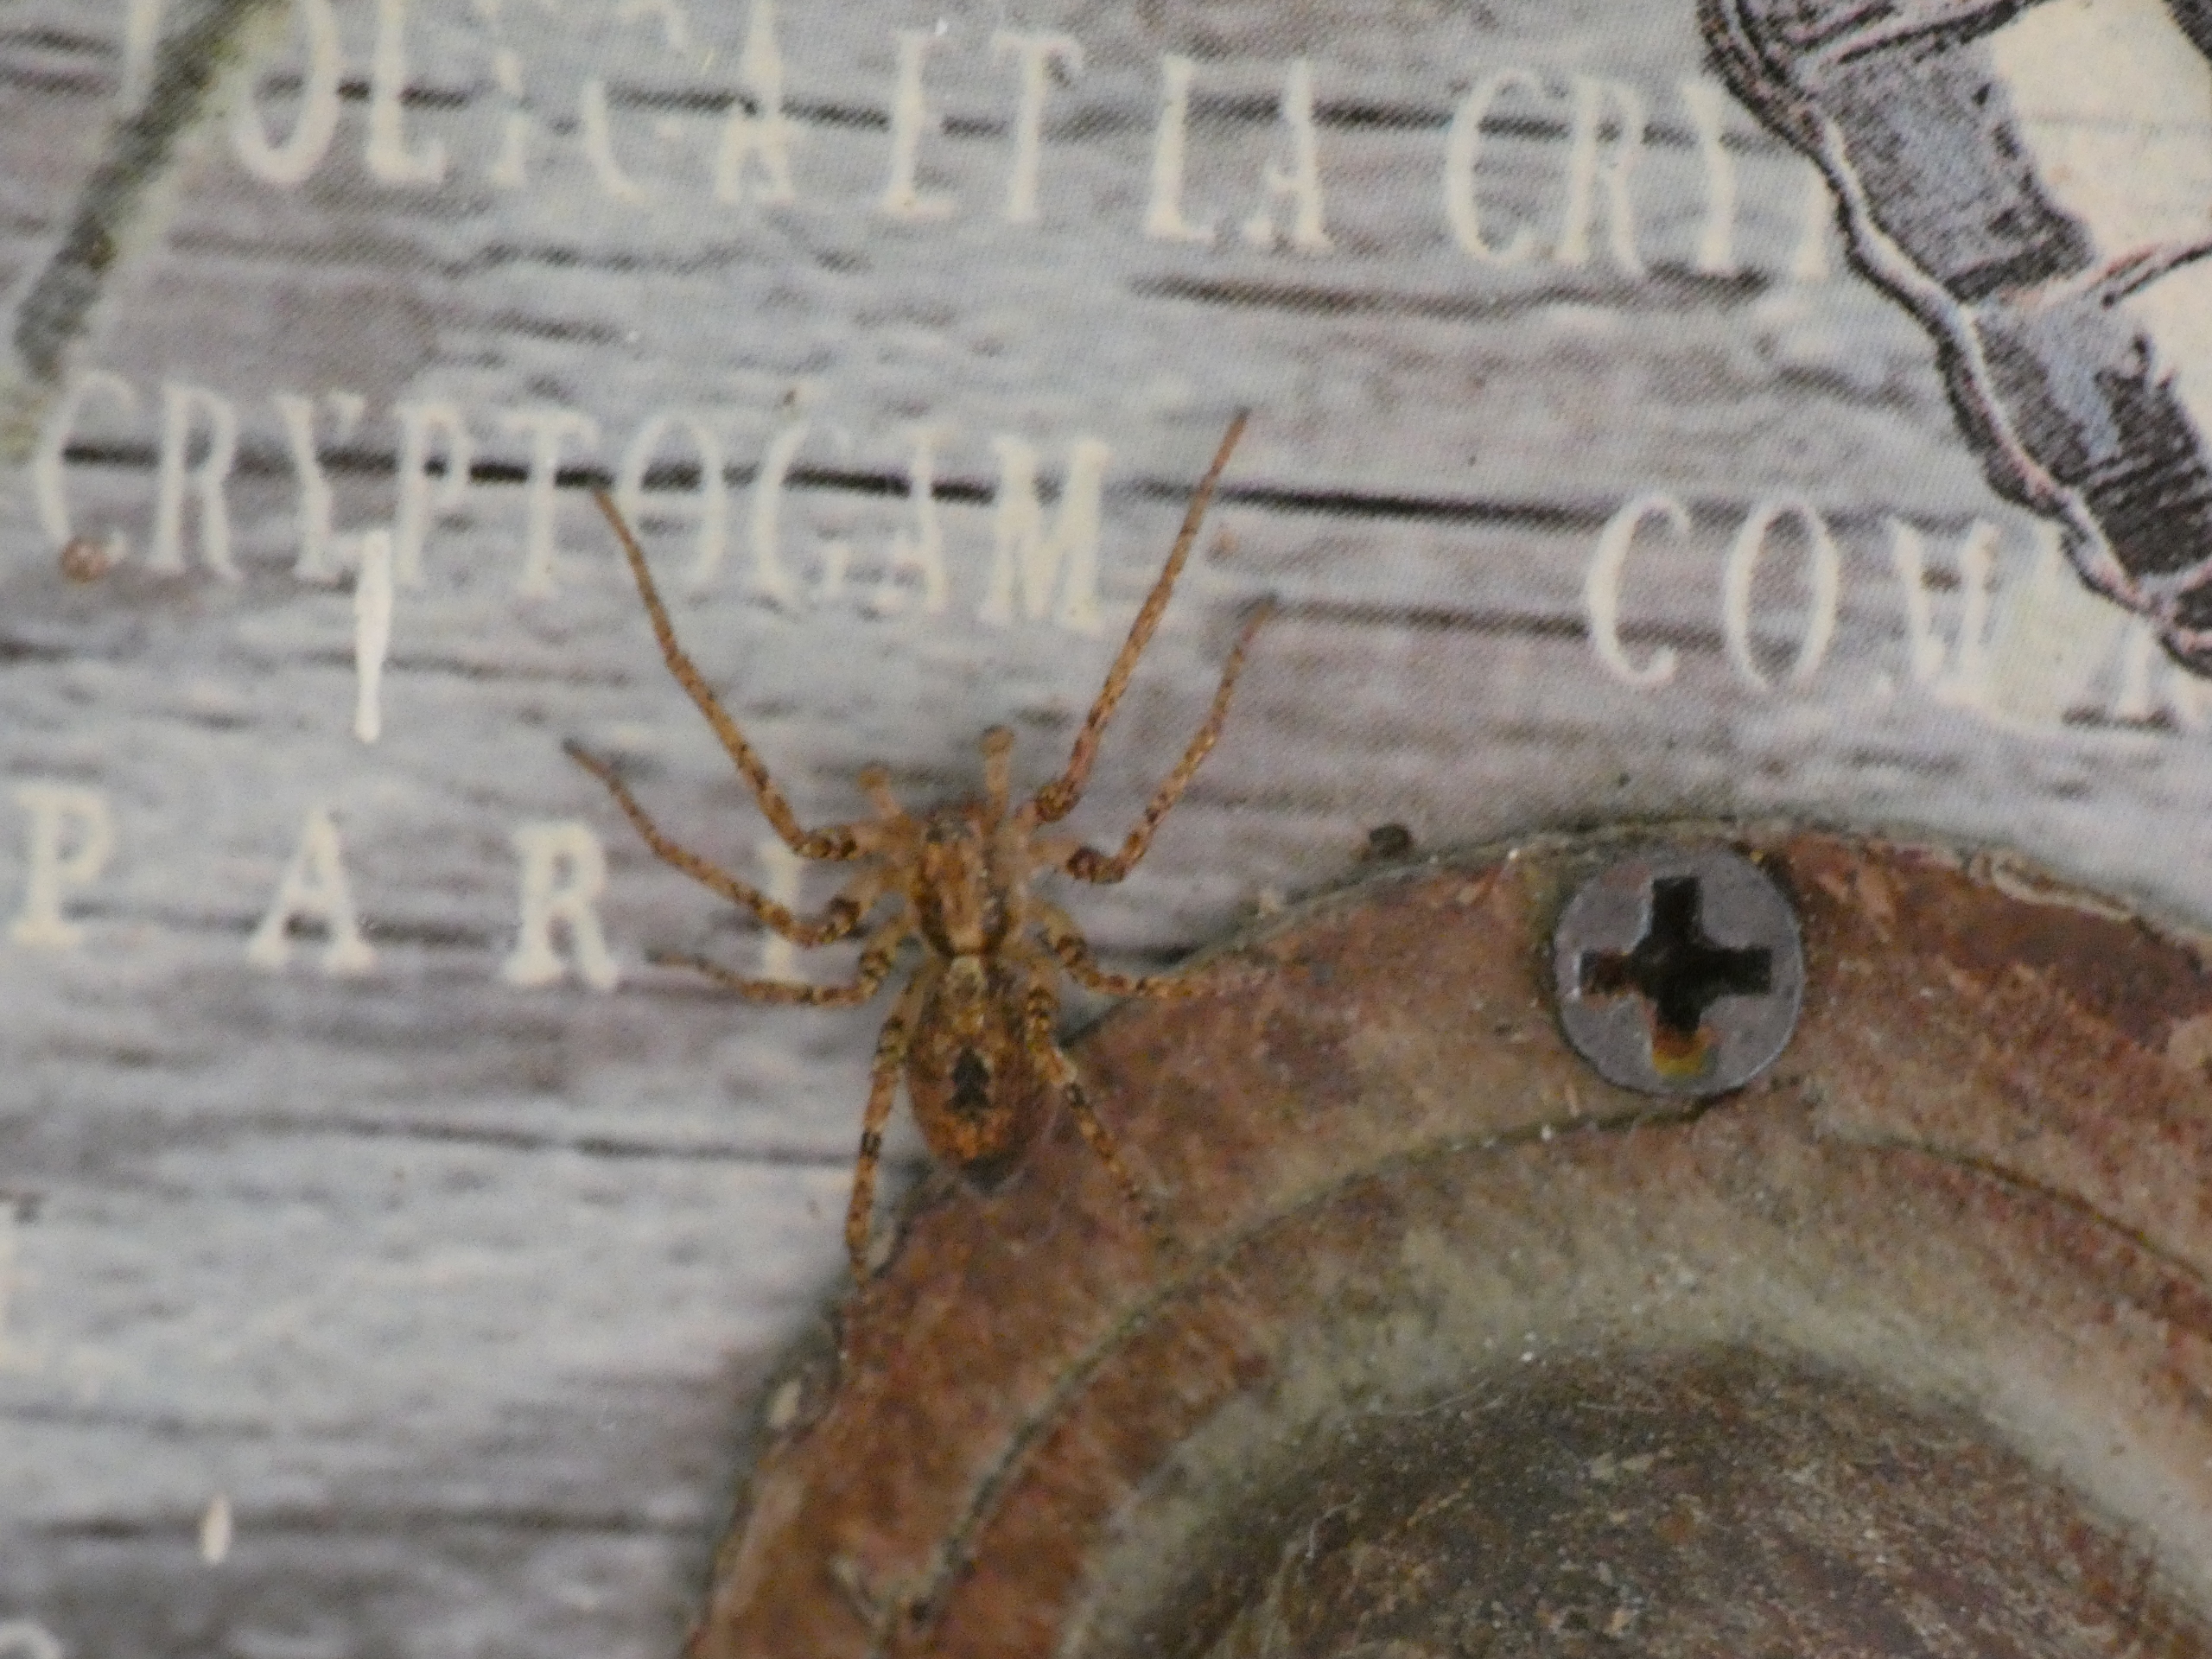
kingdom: Animalia
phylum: Arthropoda
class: Arachnida
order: Araneae
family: Anyphaenidae
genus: Anyphaena
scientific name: Anyphaena accentuata
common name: Summeedderkop
